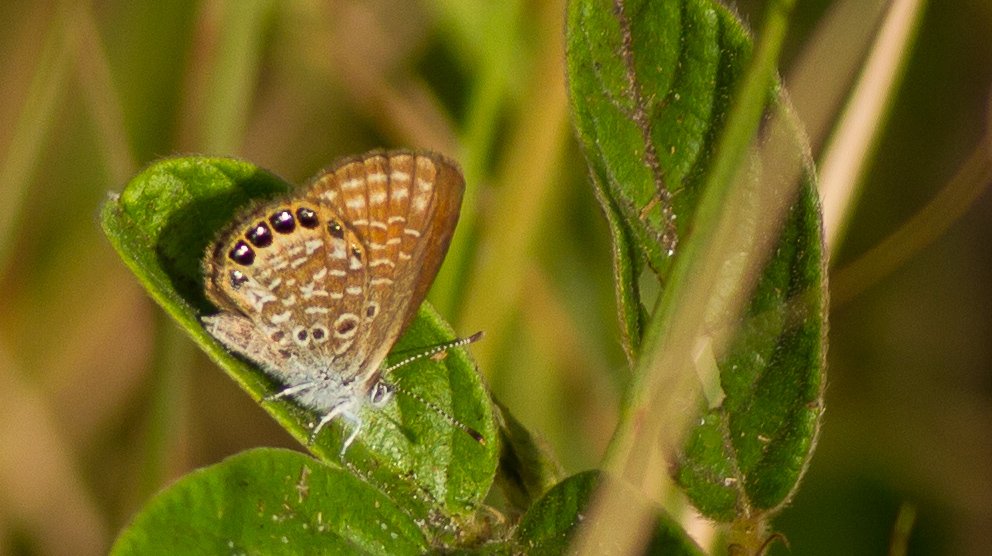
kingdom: Animalia
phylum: Arthropoda
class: Insecta
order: Lepidoptera
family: Lycaenidae
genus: Brephidium
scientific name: Brephidium isophthalma
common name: Eastern Pygmy-Blue
